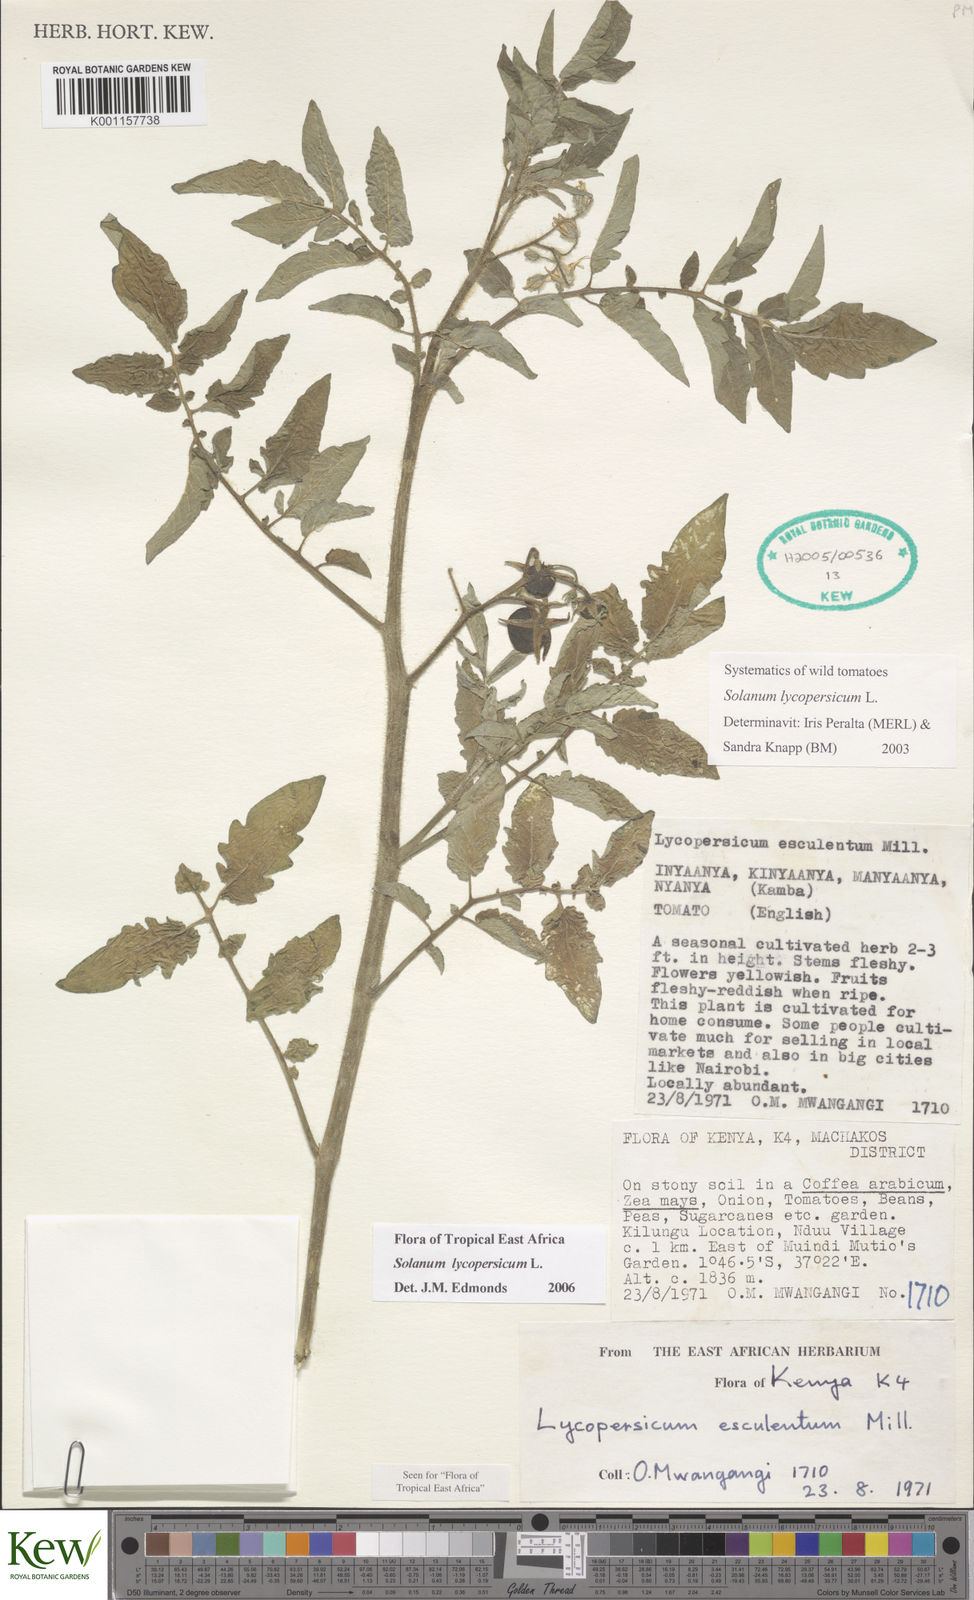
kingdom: Plantae
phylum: Tracheophyta
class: Magnoliopsida
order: Solanales
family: Solanaceae
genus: Solanum
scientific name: Solanum lycopersicum
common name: Garden tomato
